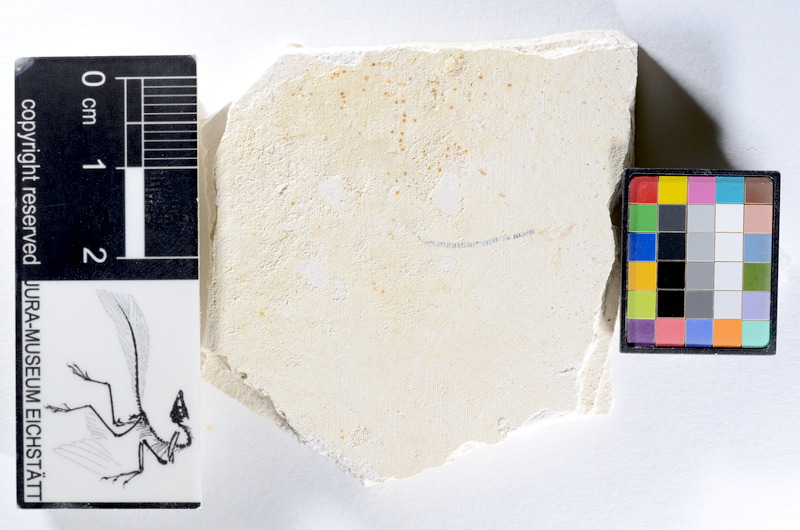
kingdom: Animalia
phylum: Chordata
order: Salmoniformes
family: Orthogonikleithridae
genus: Orthogonikleithrus
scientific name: Orthogonikleithrus hoelli
